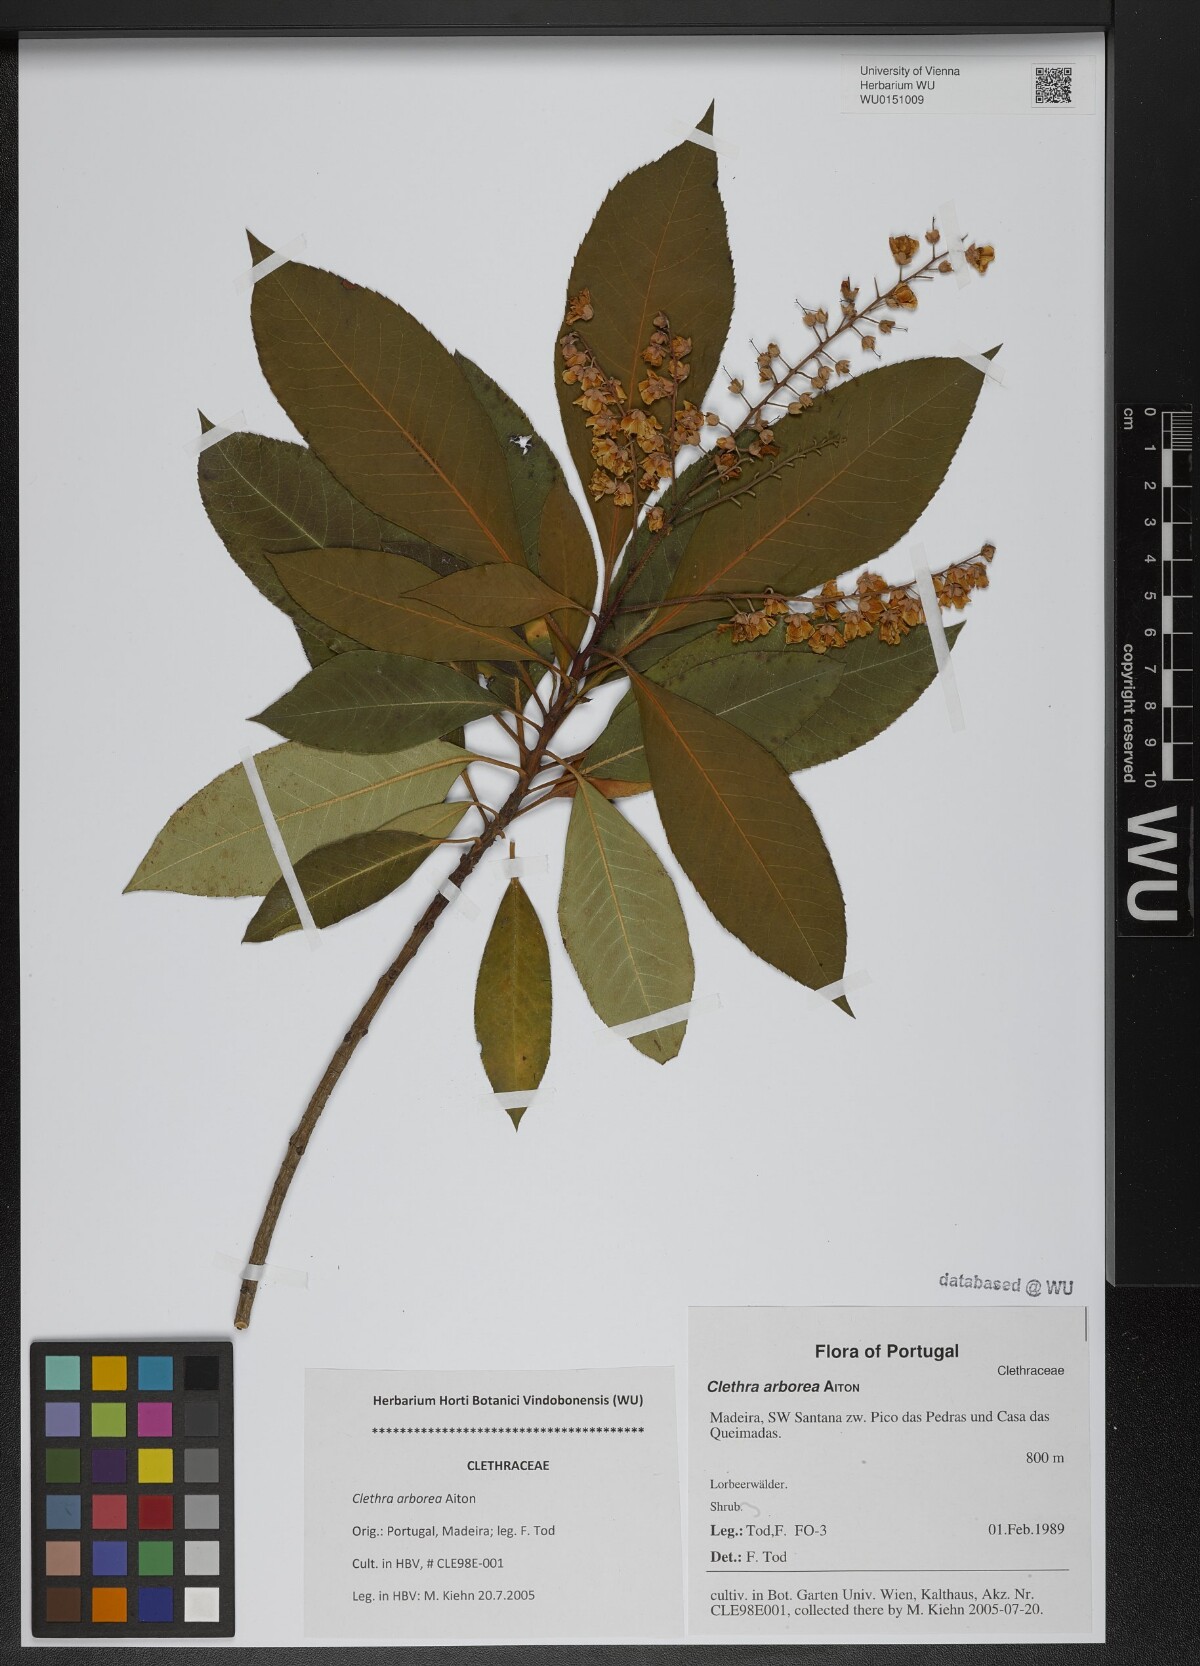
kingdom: Plantae
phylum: Tracheophyta
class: Magnoliopsida
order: Ericales
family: Clethraceae
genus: Clethra
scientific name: Clethra arborea
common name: Lily-of-the-valley-tree
